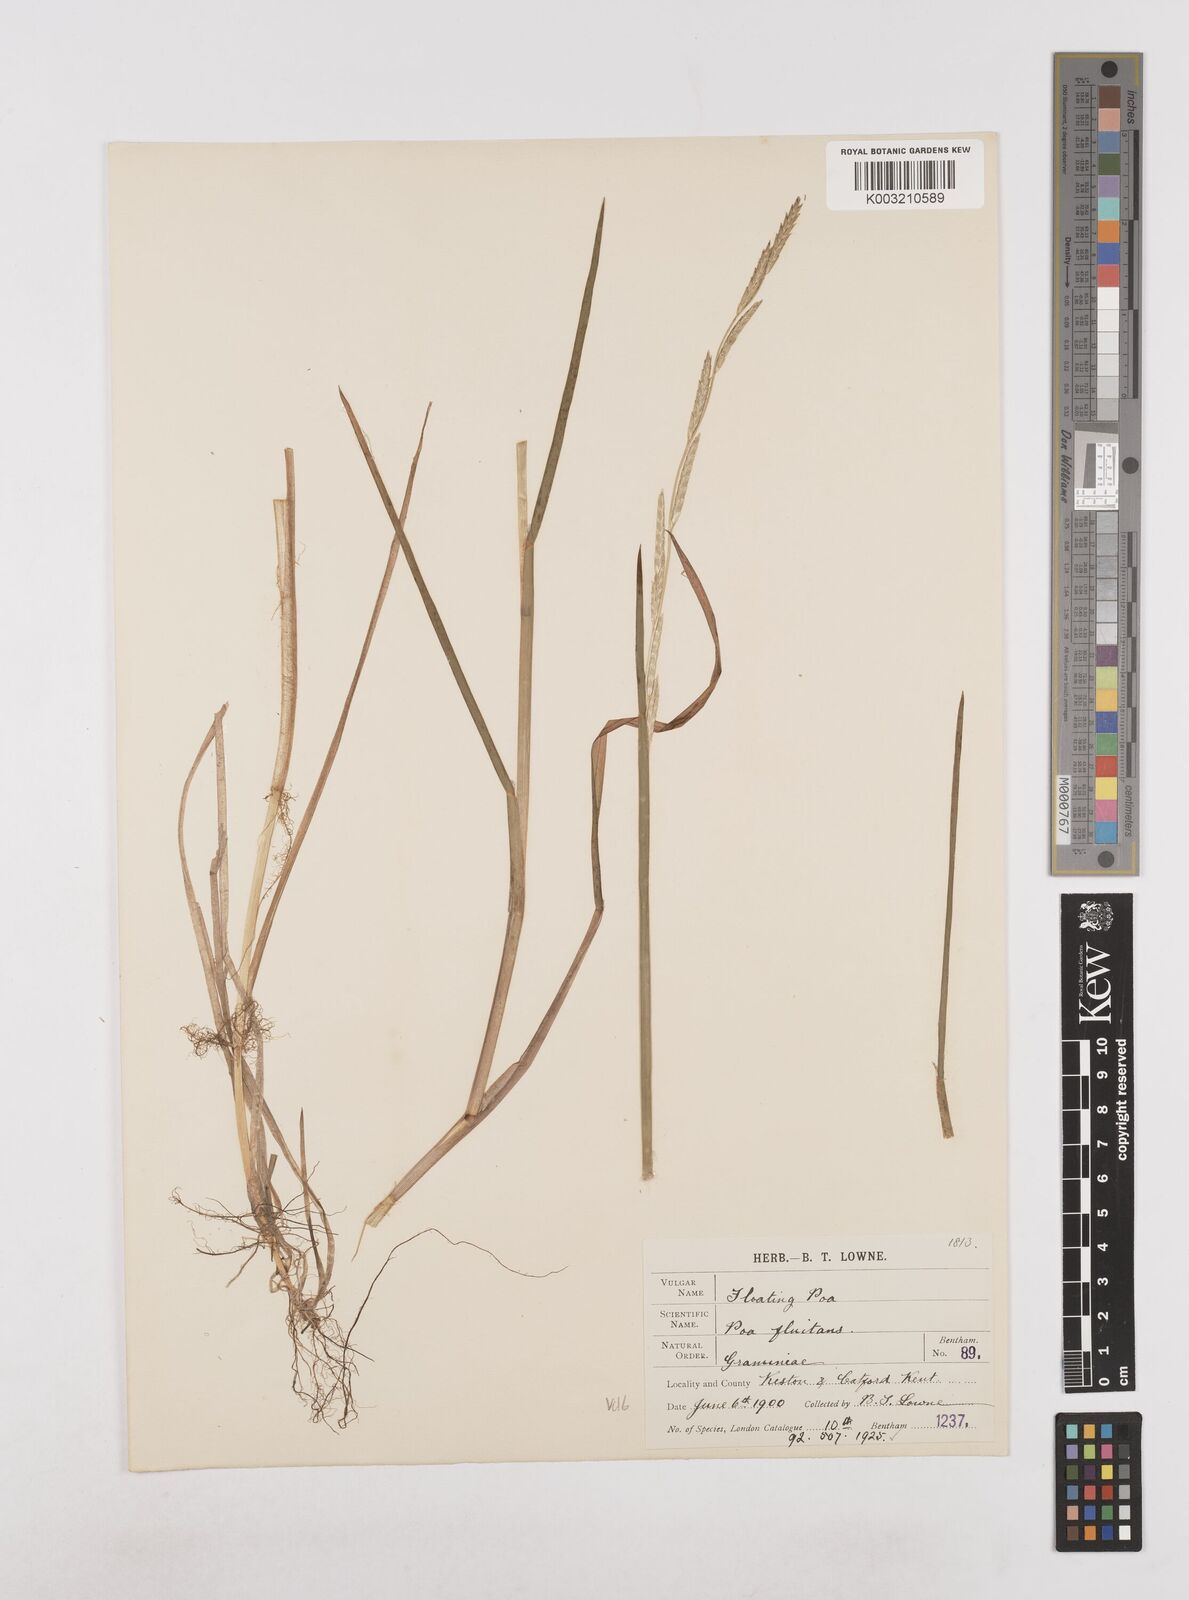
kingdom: Plantae
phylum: Tracheophyta
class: Liliopsida
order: Poales
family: Poaceae
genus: Glyceria
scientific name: Glyceria fluitans
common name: Floating sweet-grass
